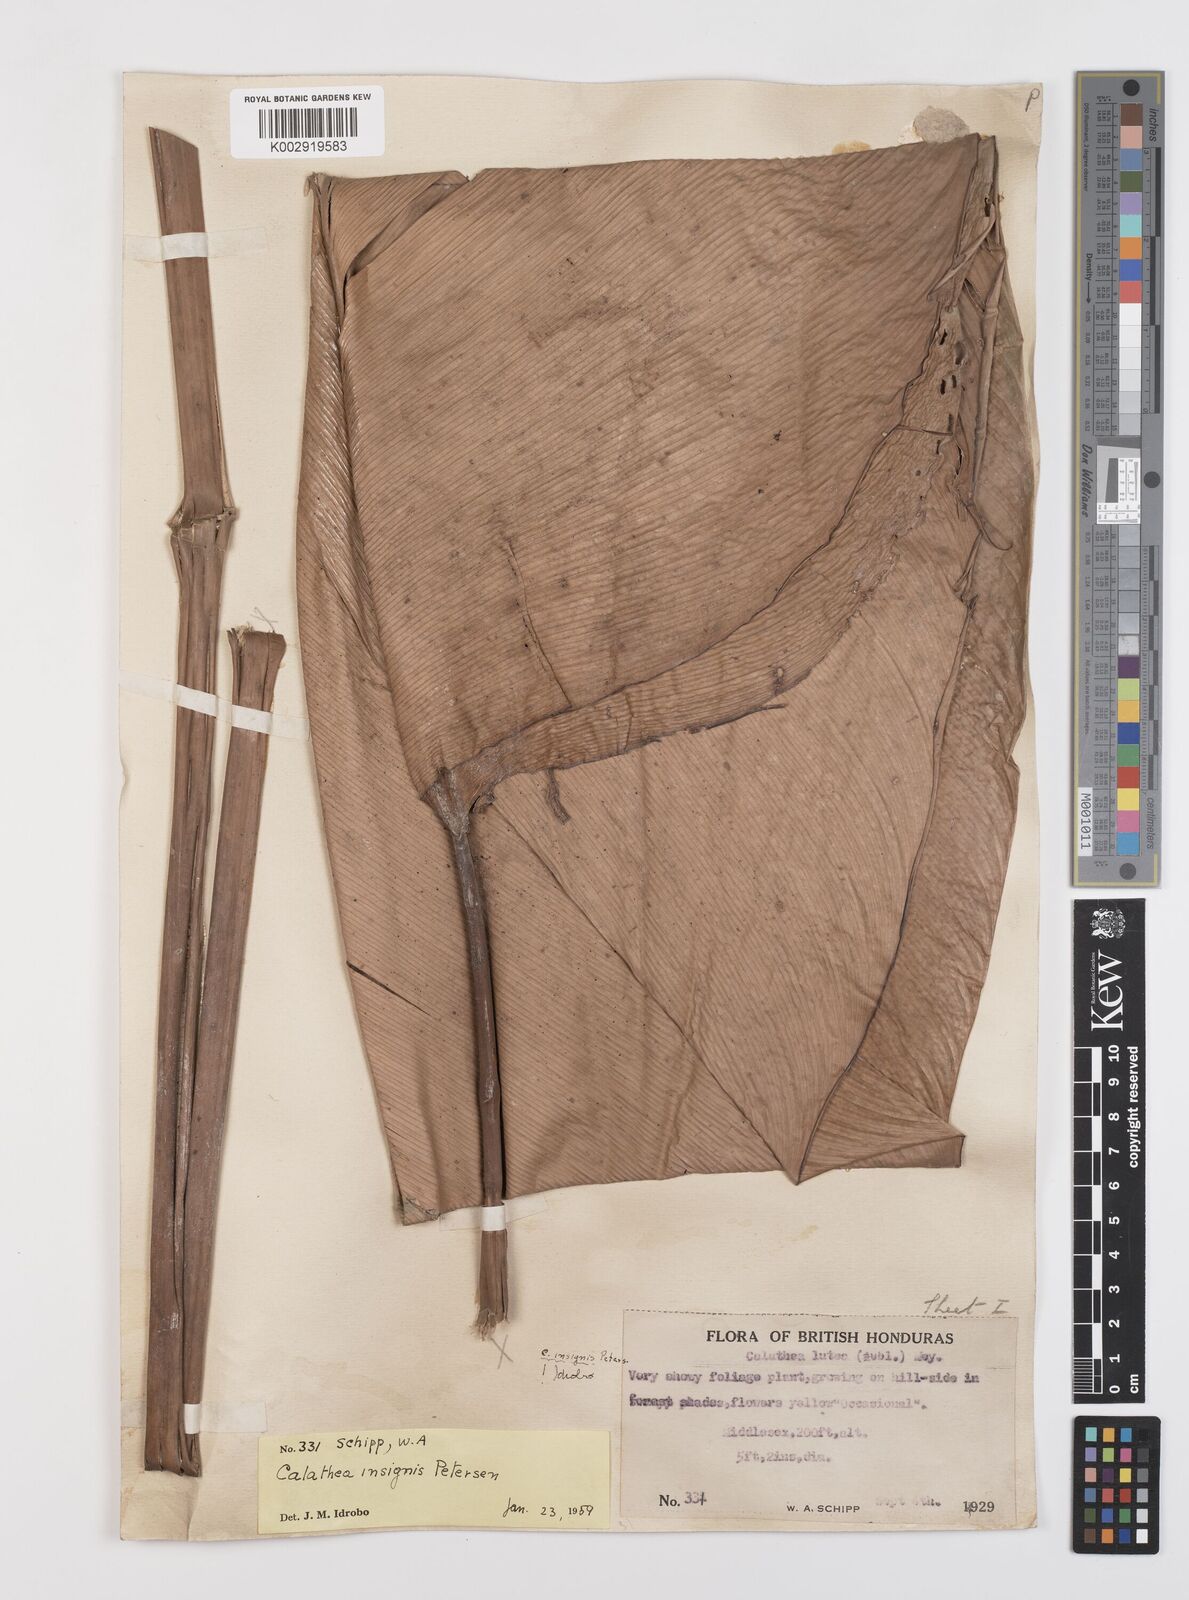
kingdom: Plantae
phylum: Tracheophyta
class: Liliopsida
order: Zingiberales
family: Marantaceae
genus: Calathea
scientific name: Calathea crotalifera
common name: Rattlesnake plant
